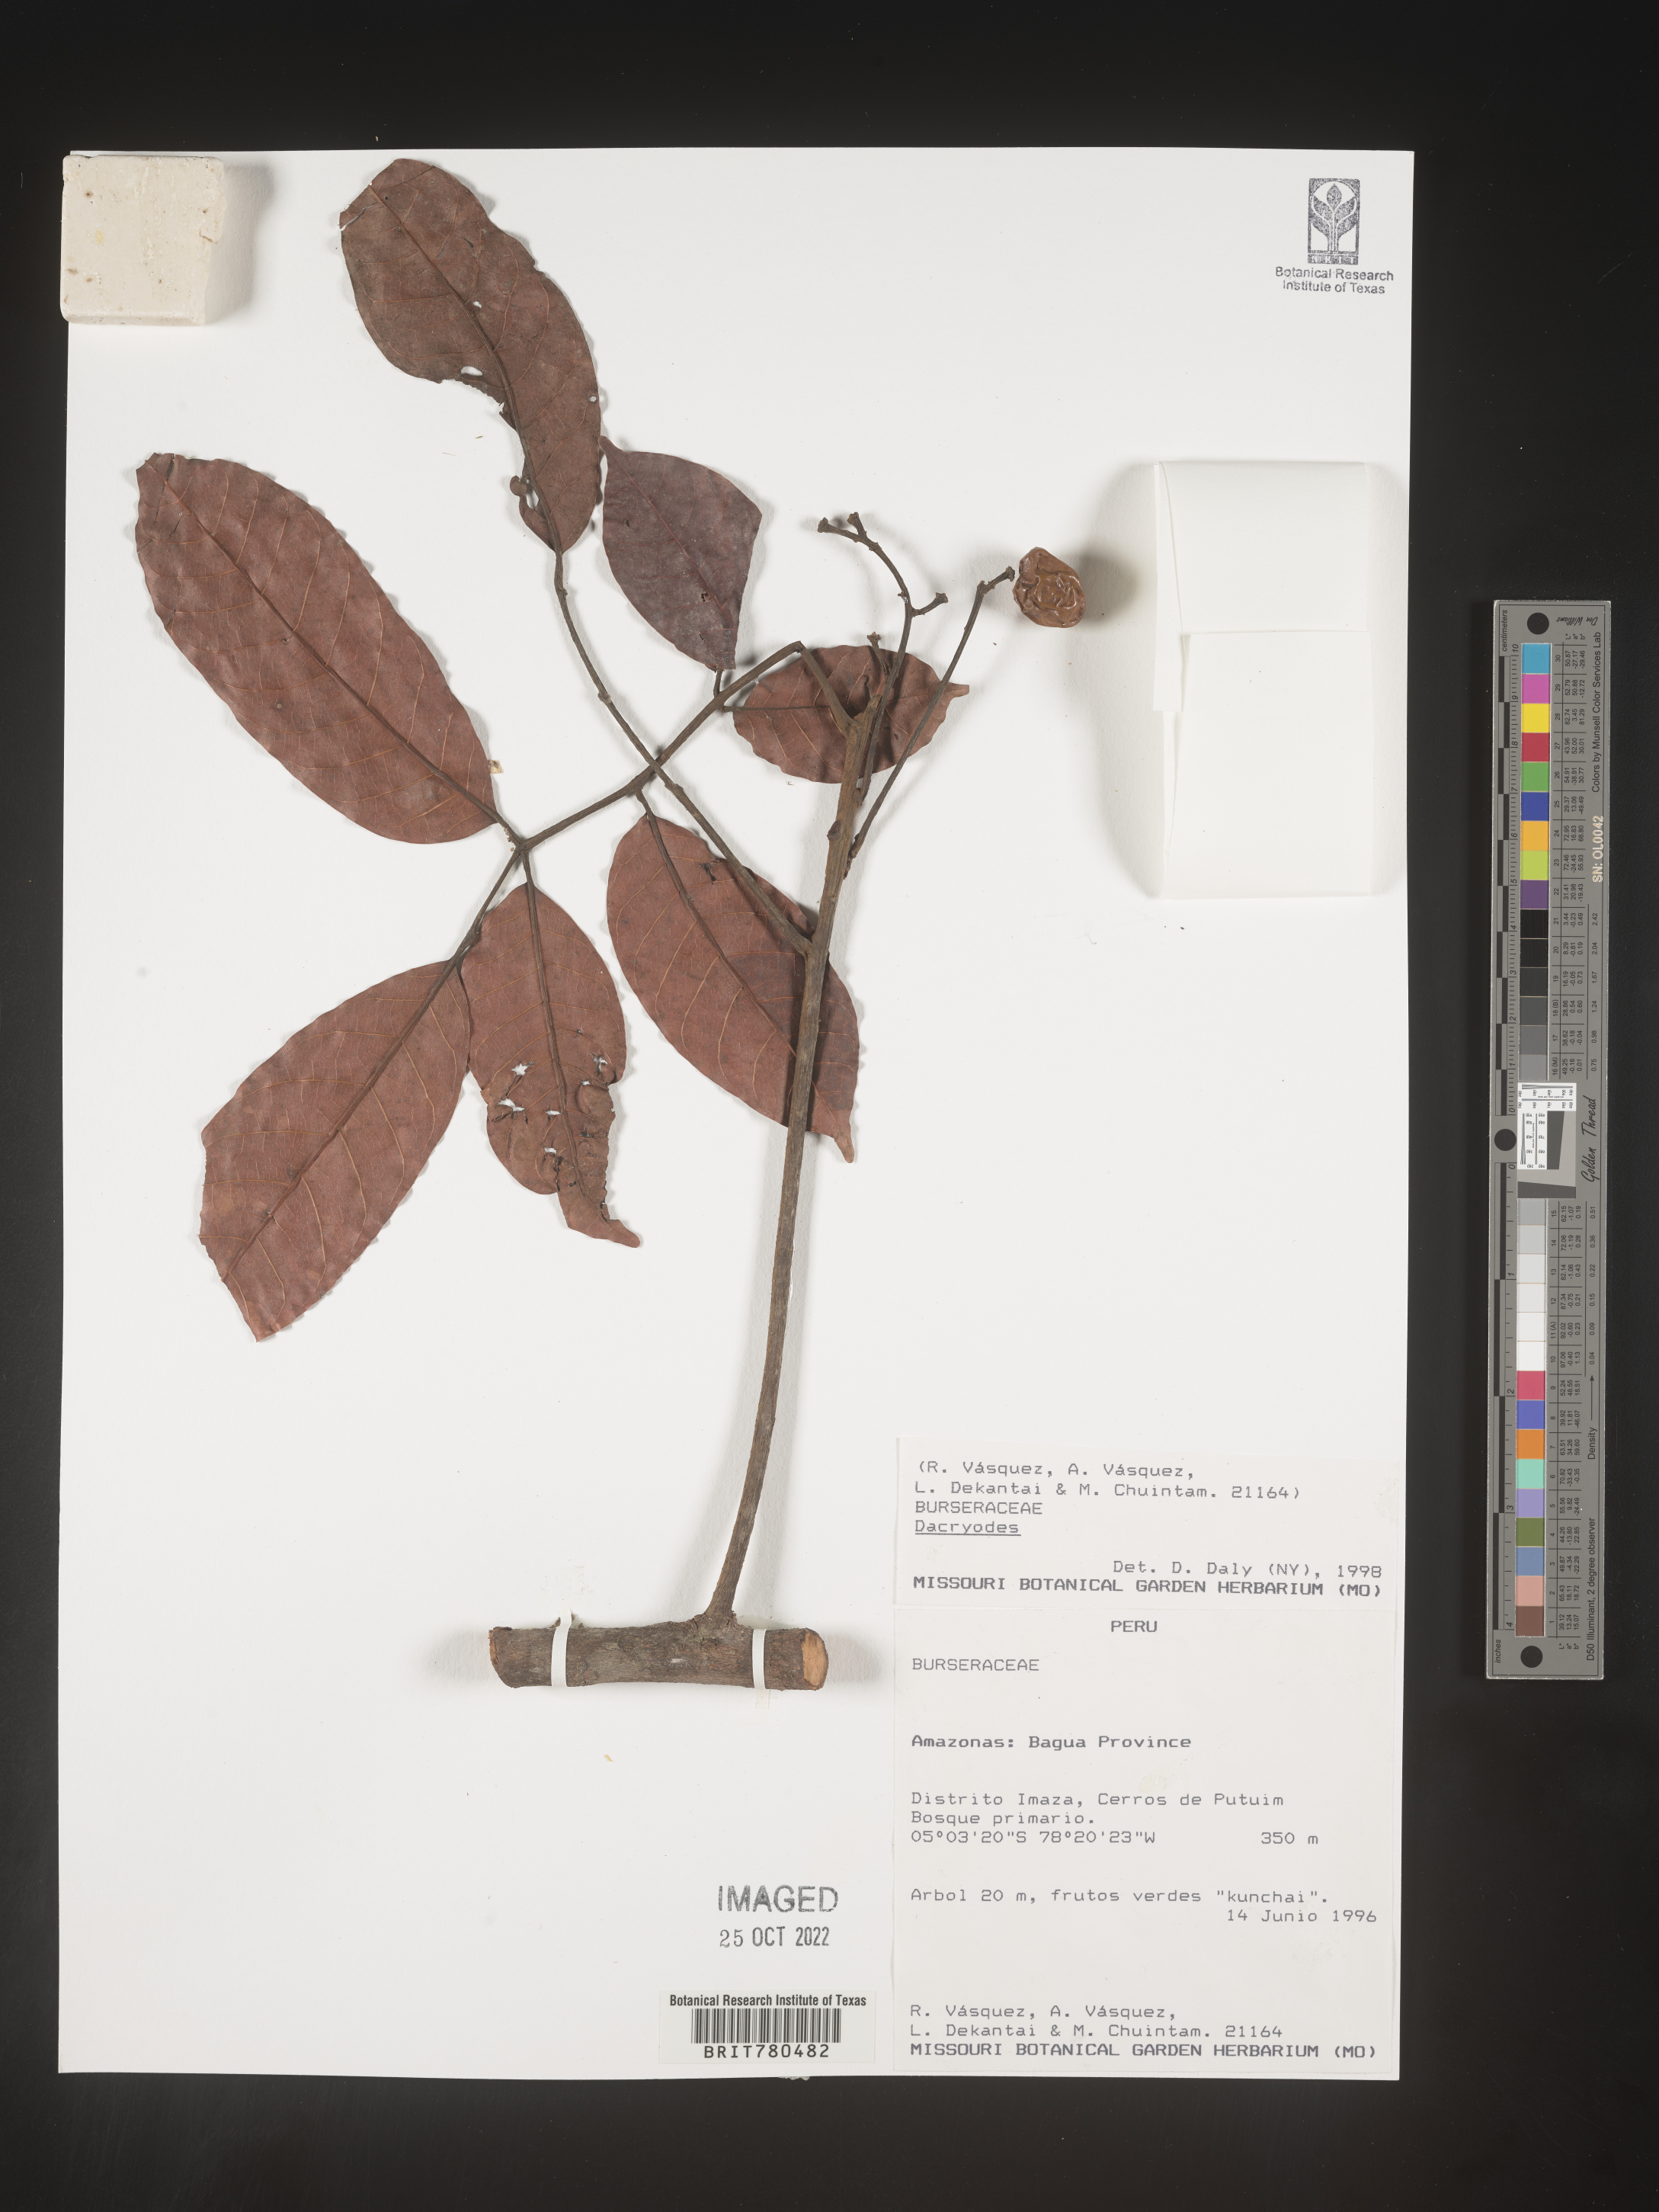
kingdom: Plantae
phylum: Tracheophyta
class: Magnoliopsida
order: Sapindales
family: Burseraceae
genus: Dacryodes
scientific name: Dacryodes
